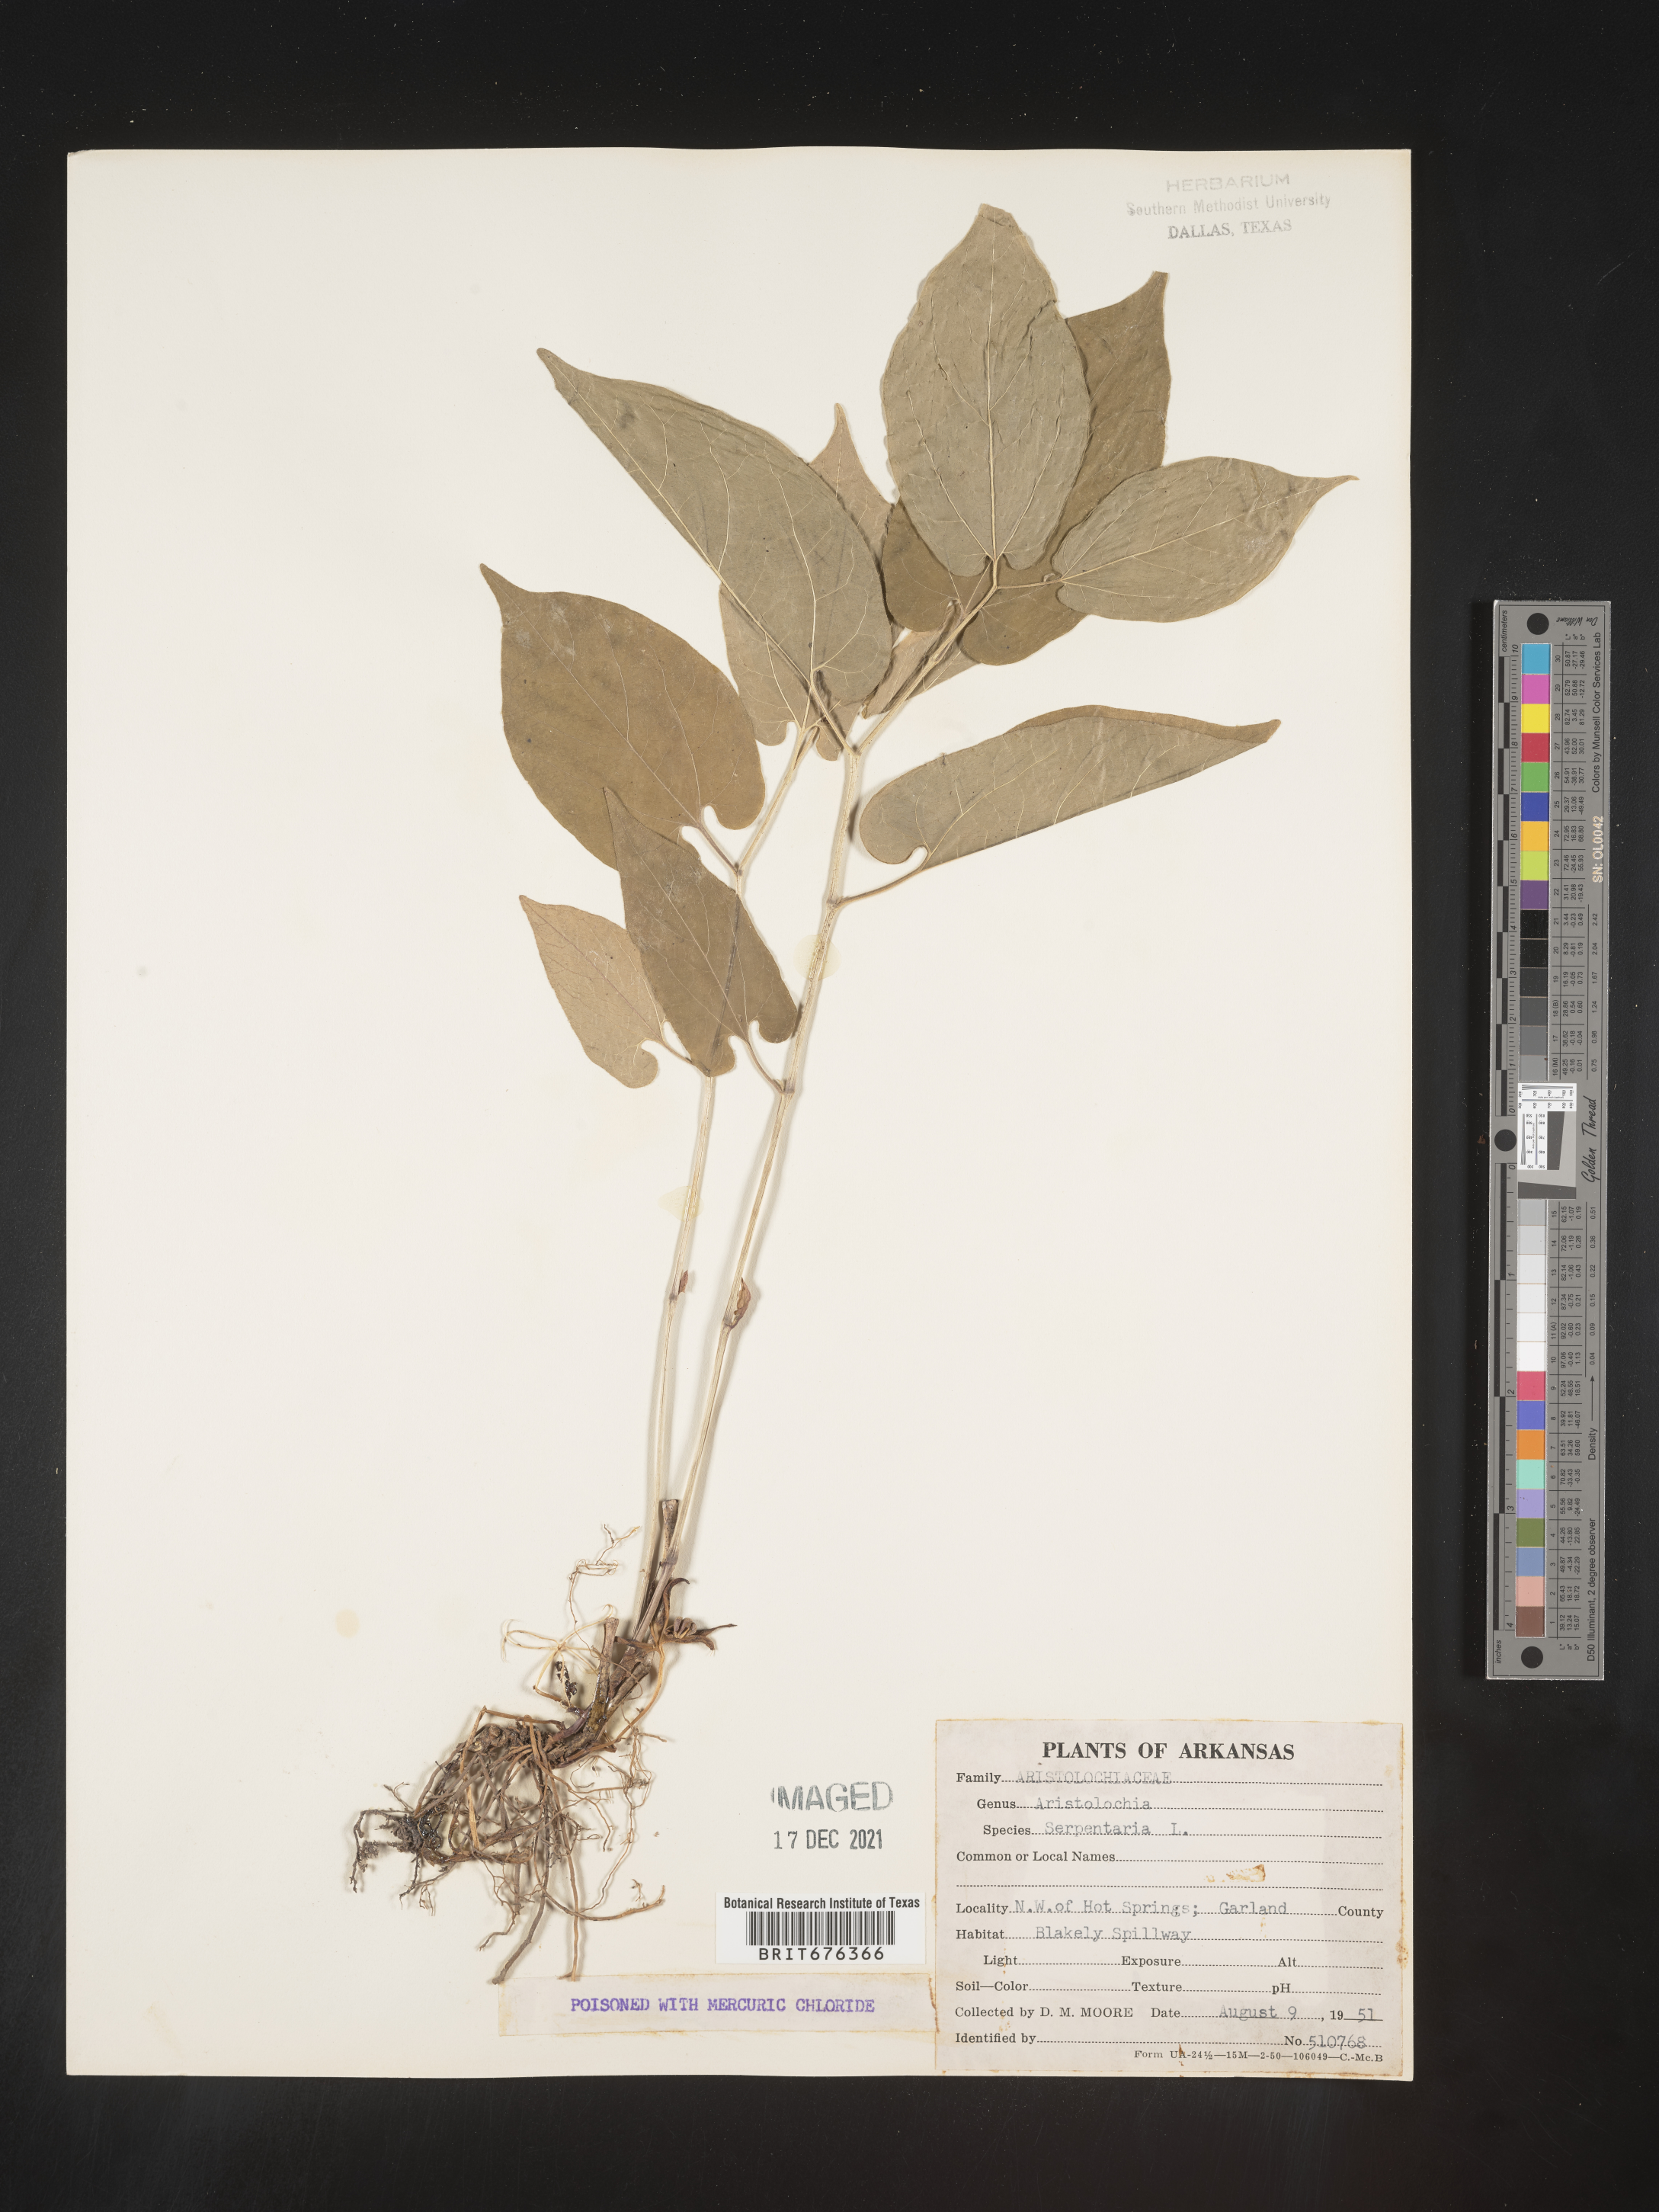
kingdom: Plantae
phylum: Tracheophyta
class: Magnoliopsida
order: Piperales
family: Aristolochiaceae
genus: Aristolochia
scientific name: Aristolochia
